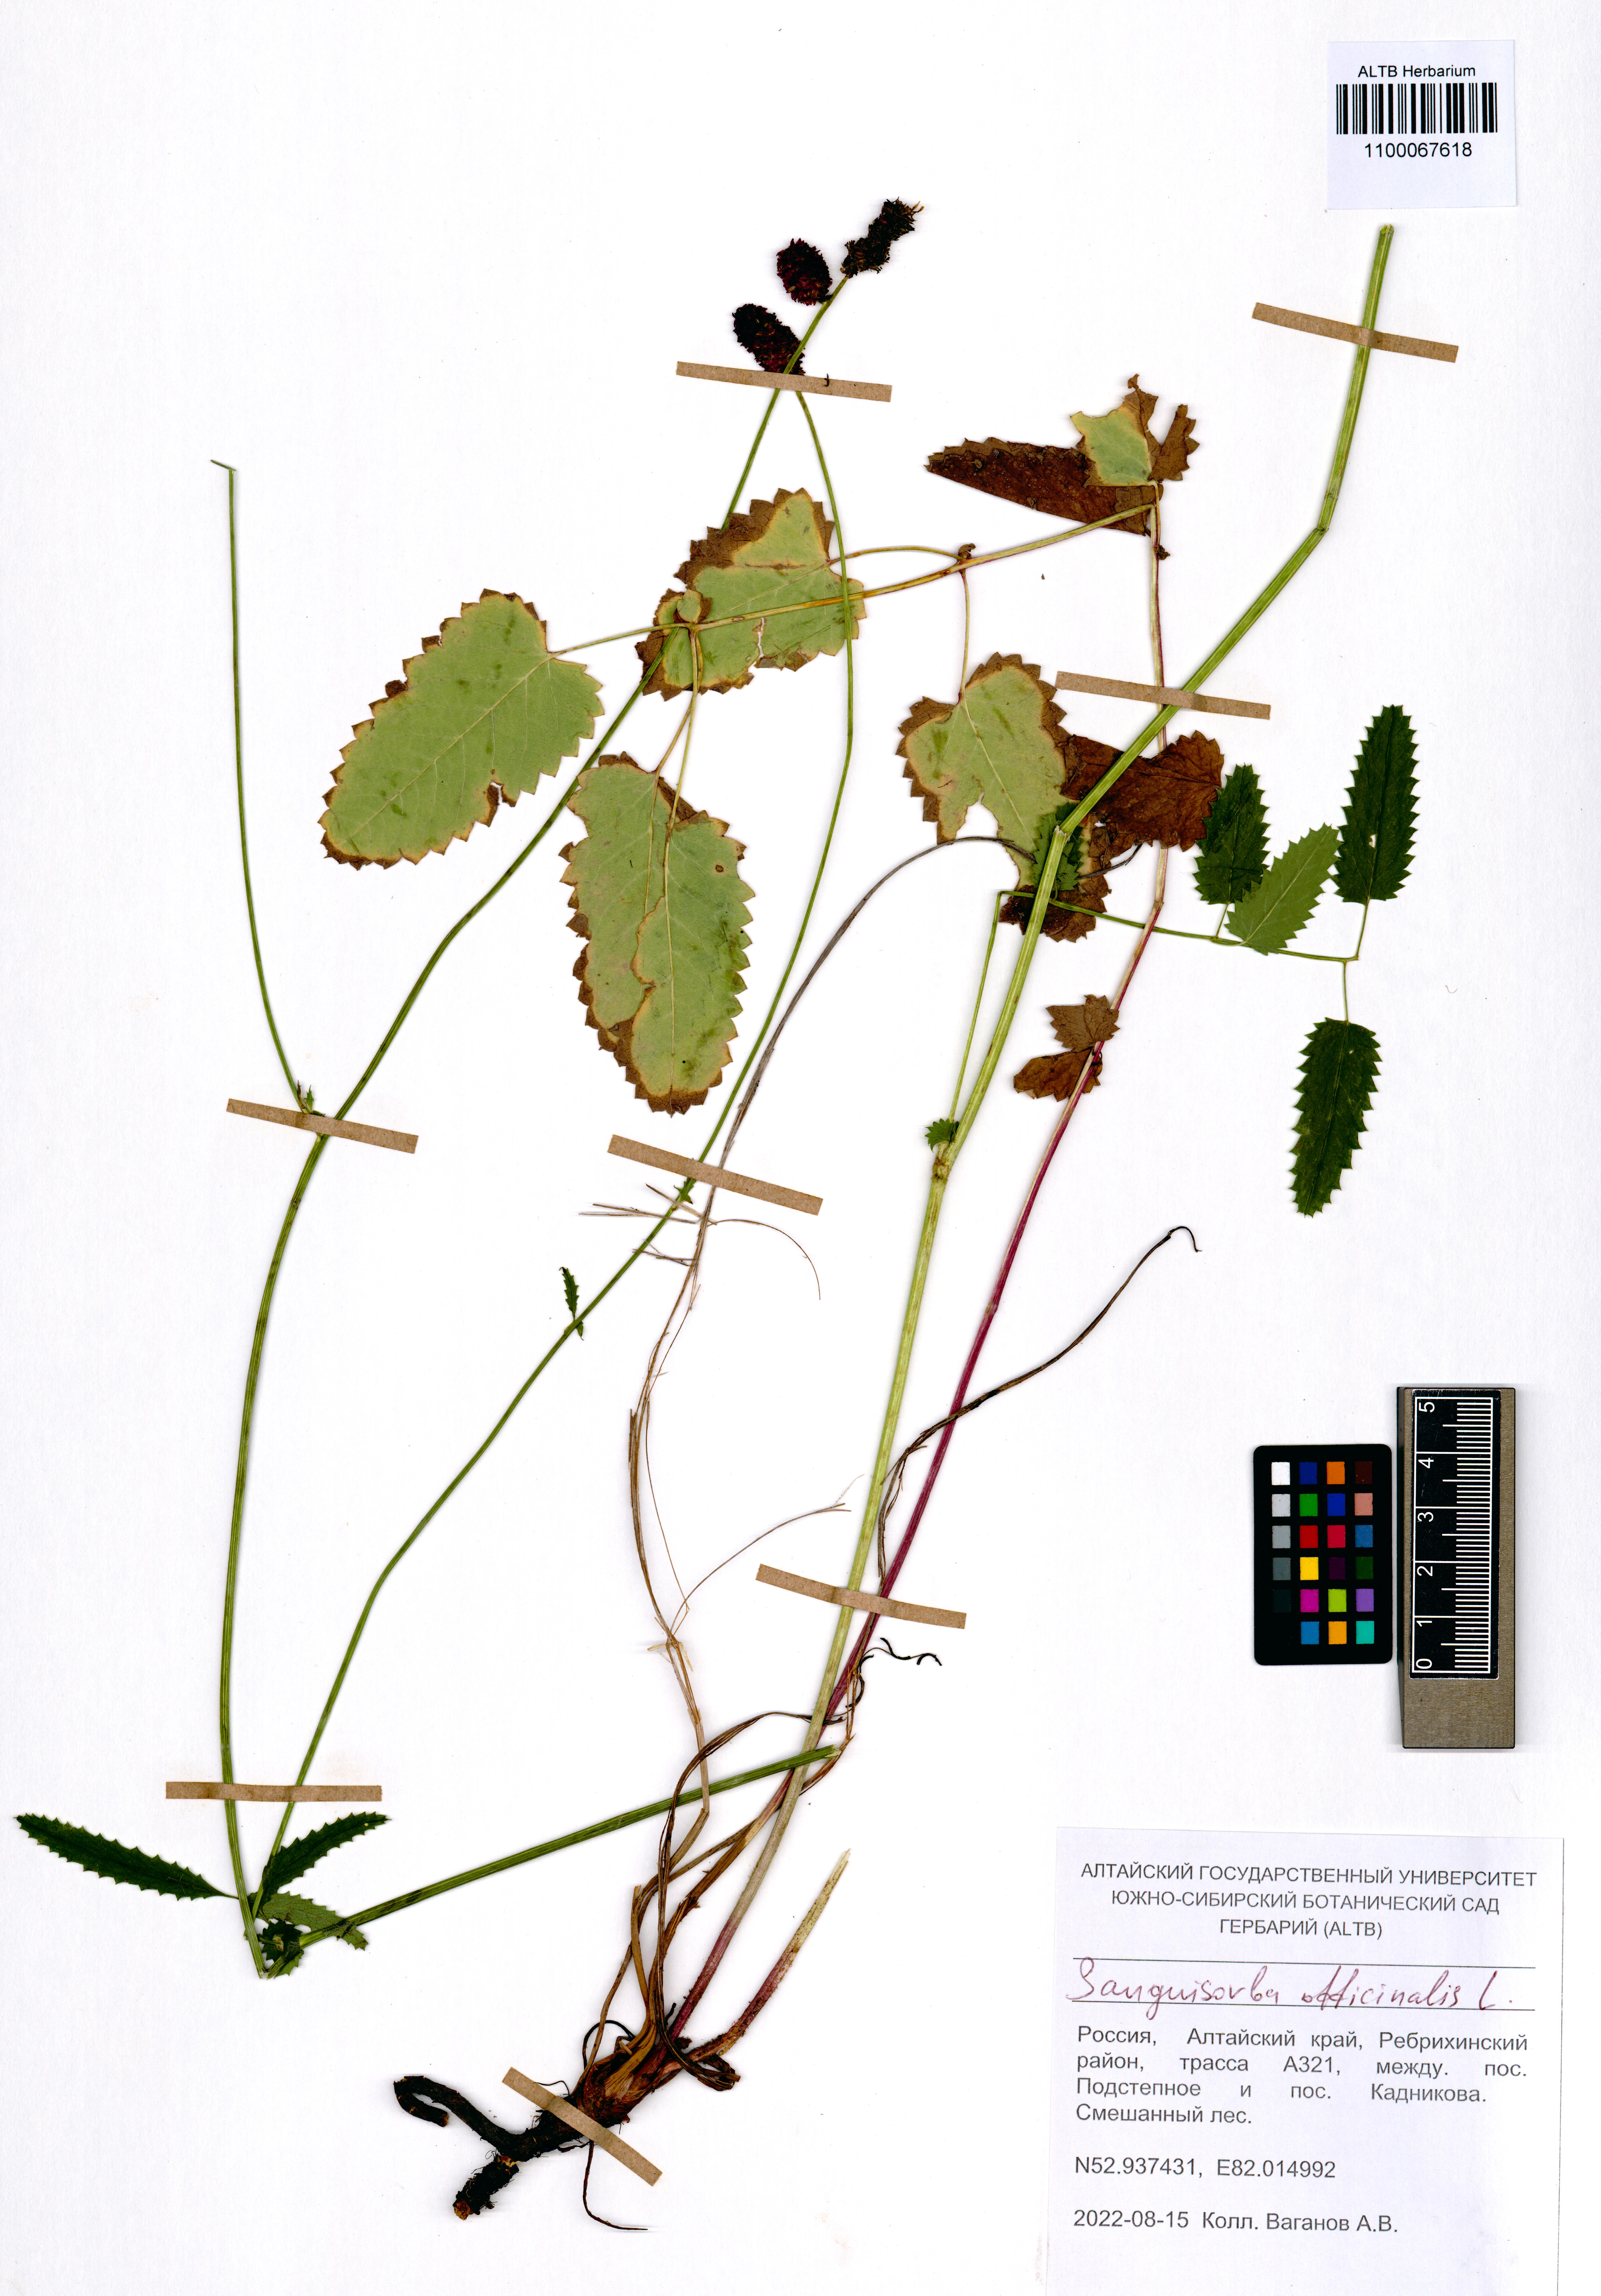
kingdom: Plantae
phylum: Tracheophyta
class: Magnoliopsida
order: Rosales
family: Rosaceae
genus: Sanguisorba
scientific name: Sanguisorba officinalis
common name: Great burnet
